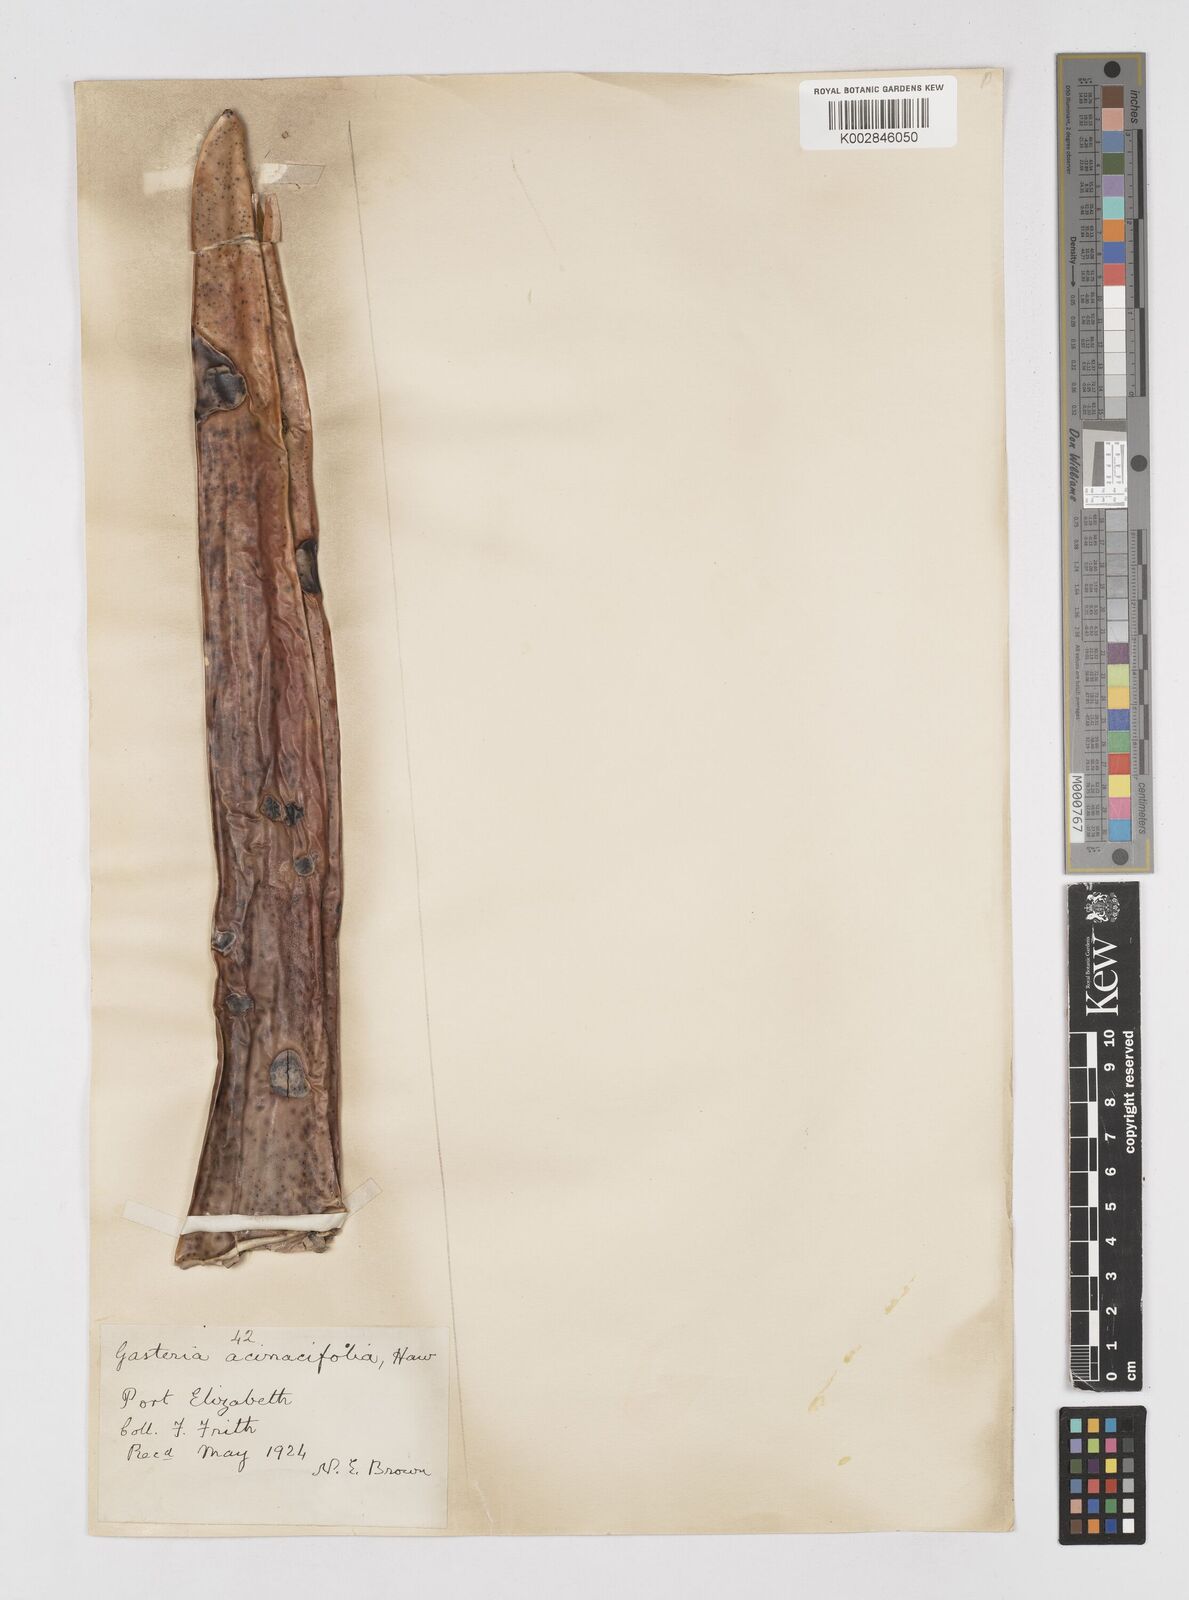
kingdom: Plantae
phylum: Tracheophyta
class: Liliopsida
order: Asparagales
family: Asphodelaceae
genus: Gasteria
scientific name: Gasteria acinacifolia
